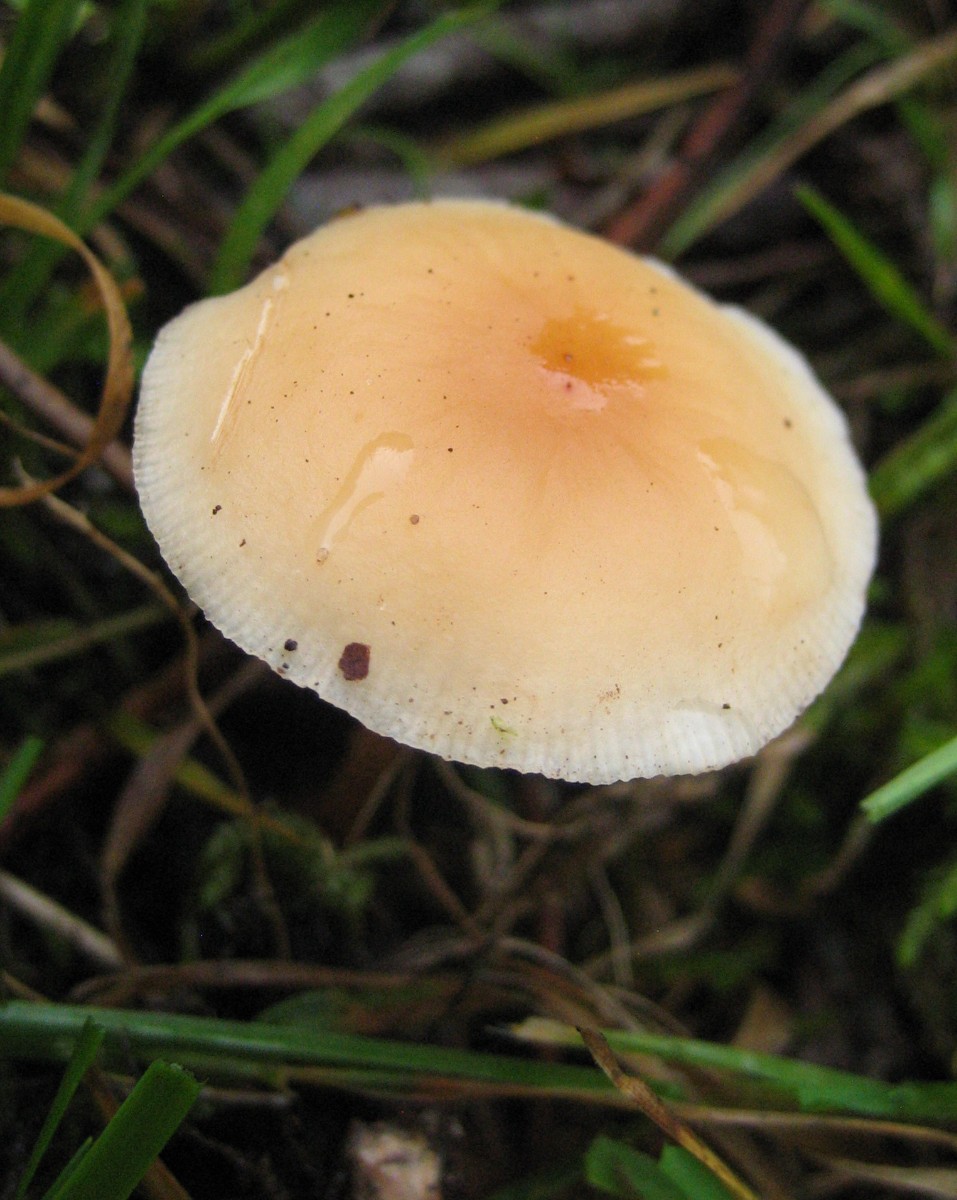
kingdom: Fungi
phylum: Basidiomycota
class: Agaricomycetes
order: Agaricales
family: Omphalotaceae
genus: Gymnopus
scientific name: Gymnopus dryophilus
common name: løv-fladhat
